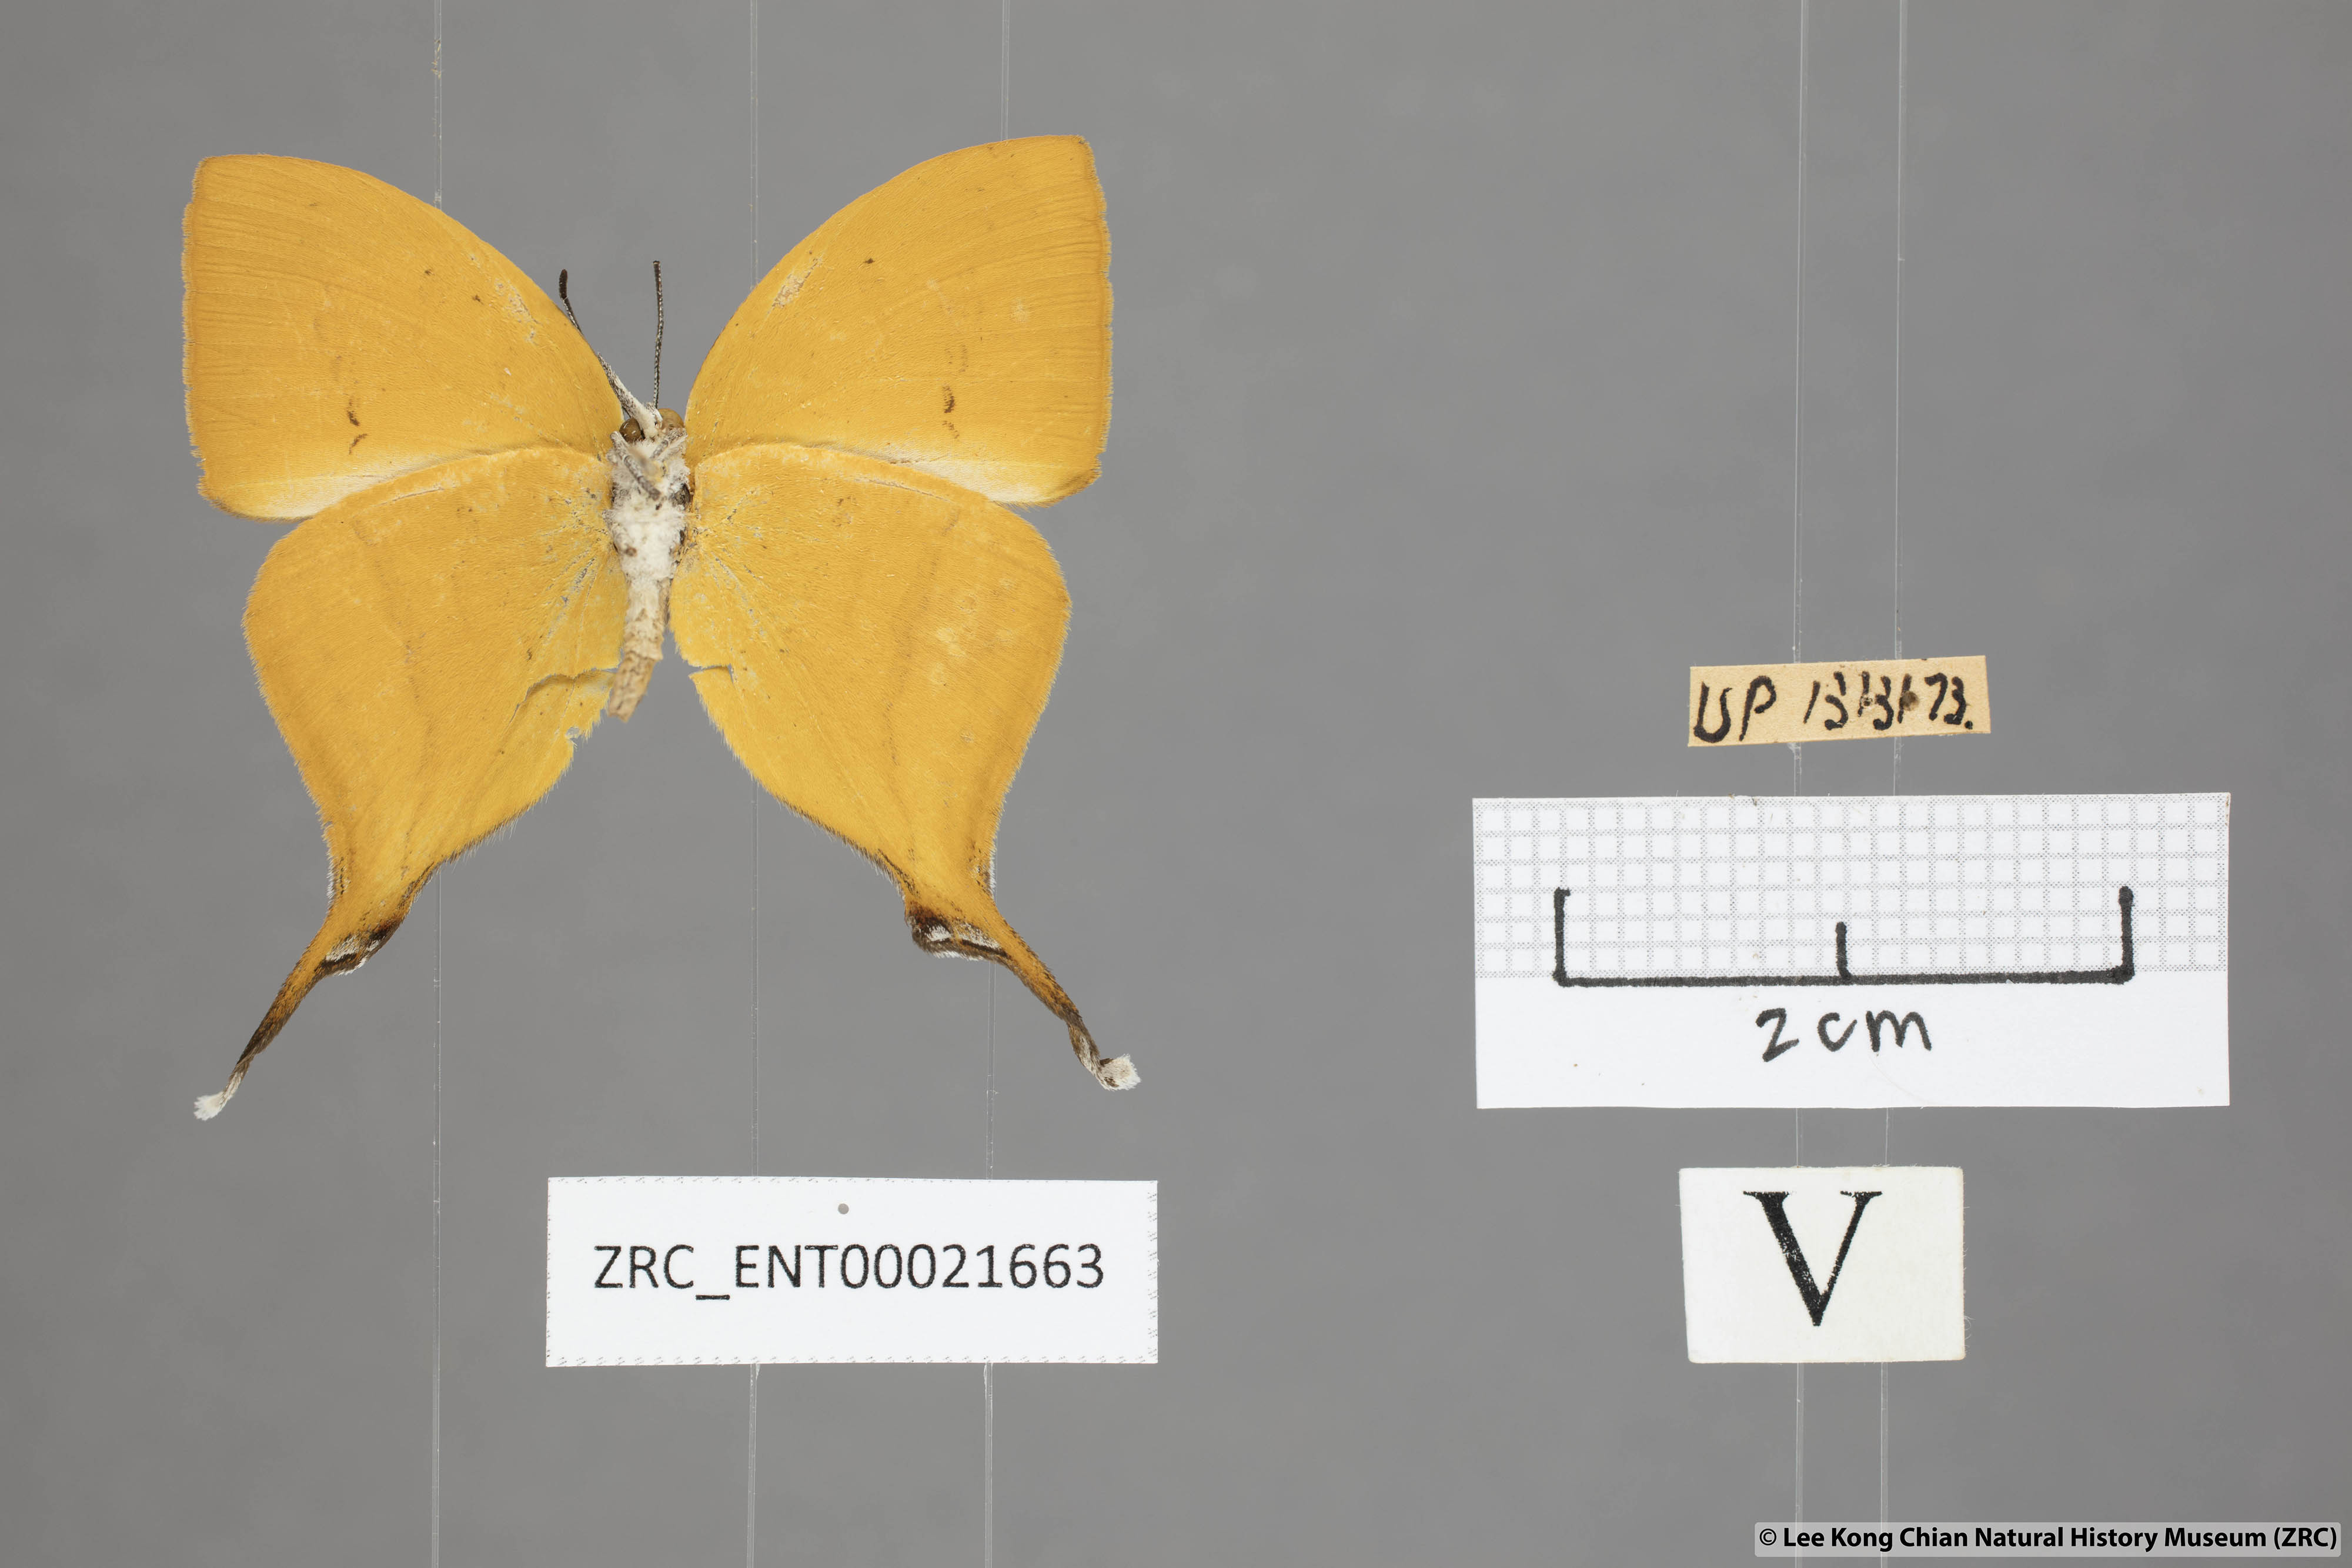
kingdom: Animalia
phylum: Arthropoda
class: Insecta
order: Lepidoptera
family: Lycaenidae
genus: Loxura
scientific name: Loxura atymnus
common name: Common yamfly
